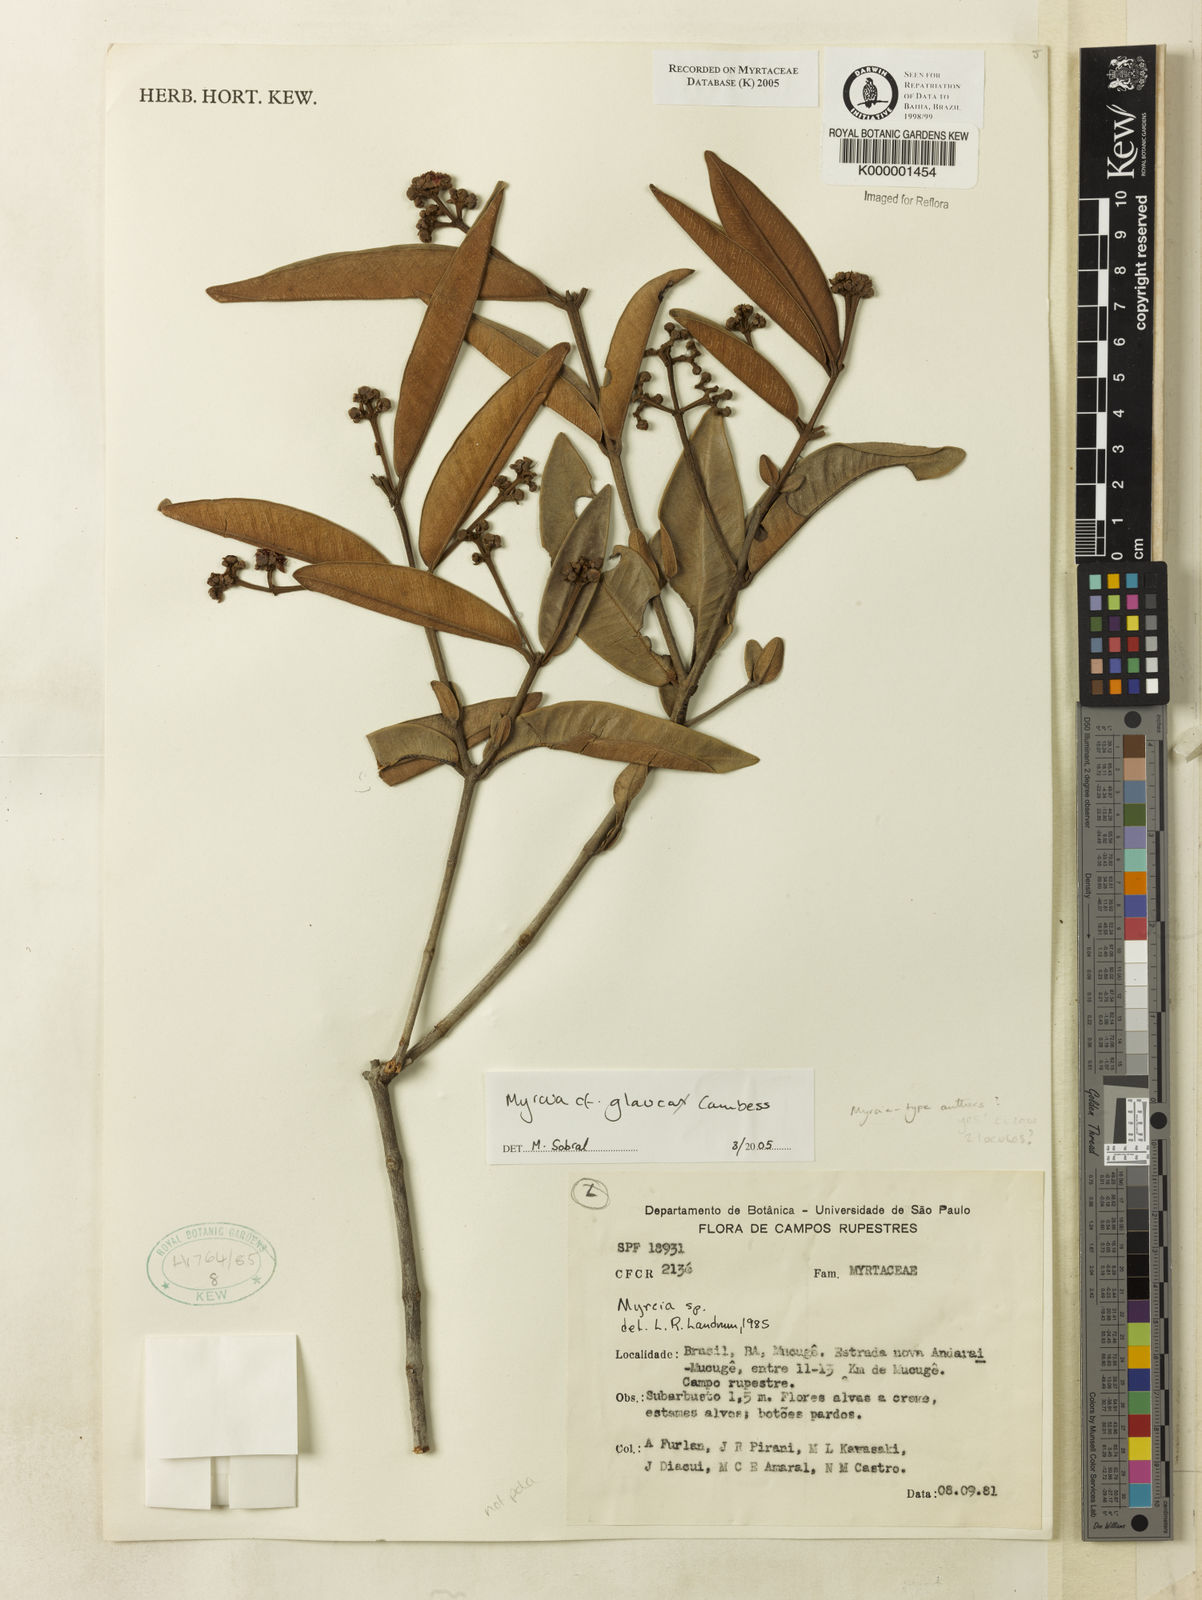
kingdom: Plantae
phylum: Tracheophyta
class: Magnoliopsida
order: Myrtales
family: Myrtaceae
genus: Myrcia
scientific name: Myrcia
